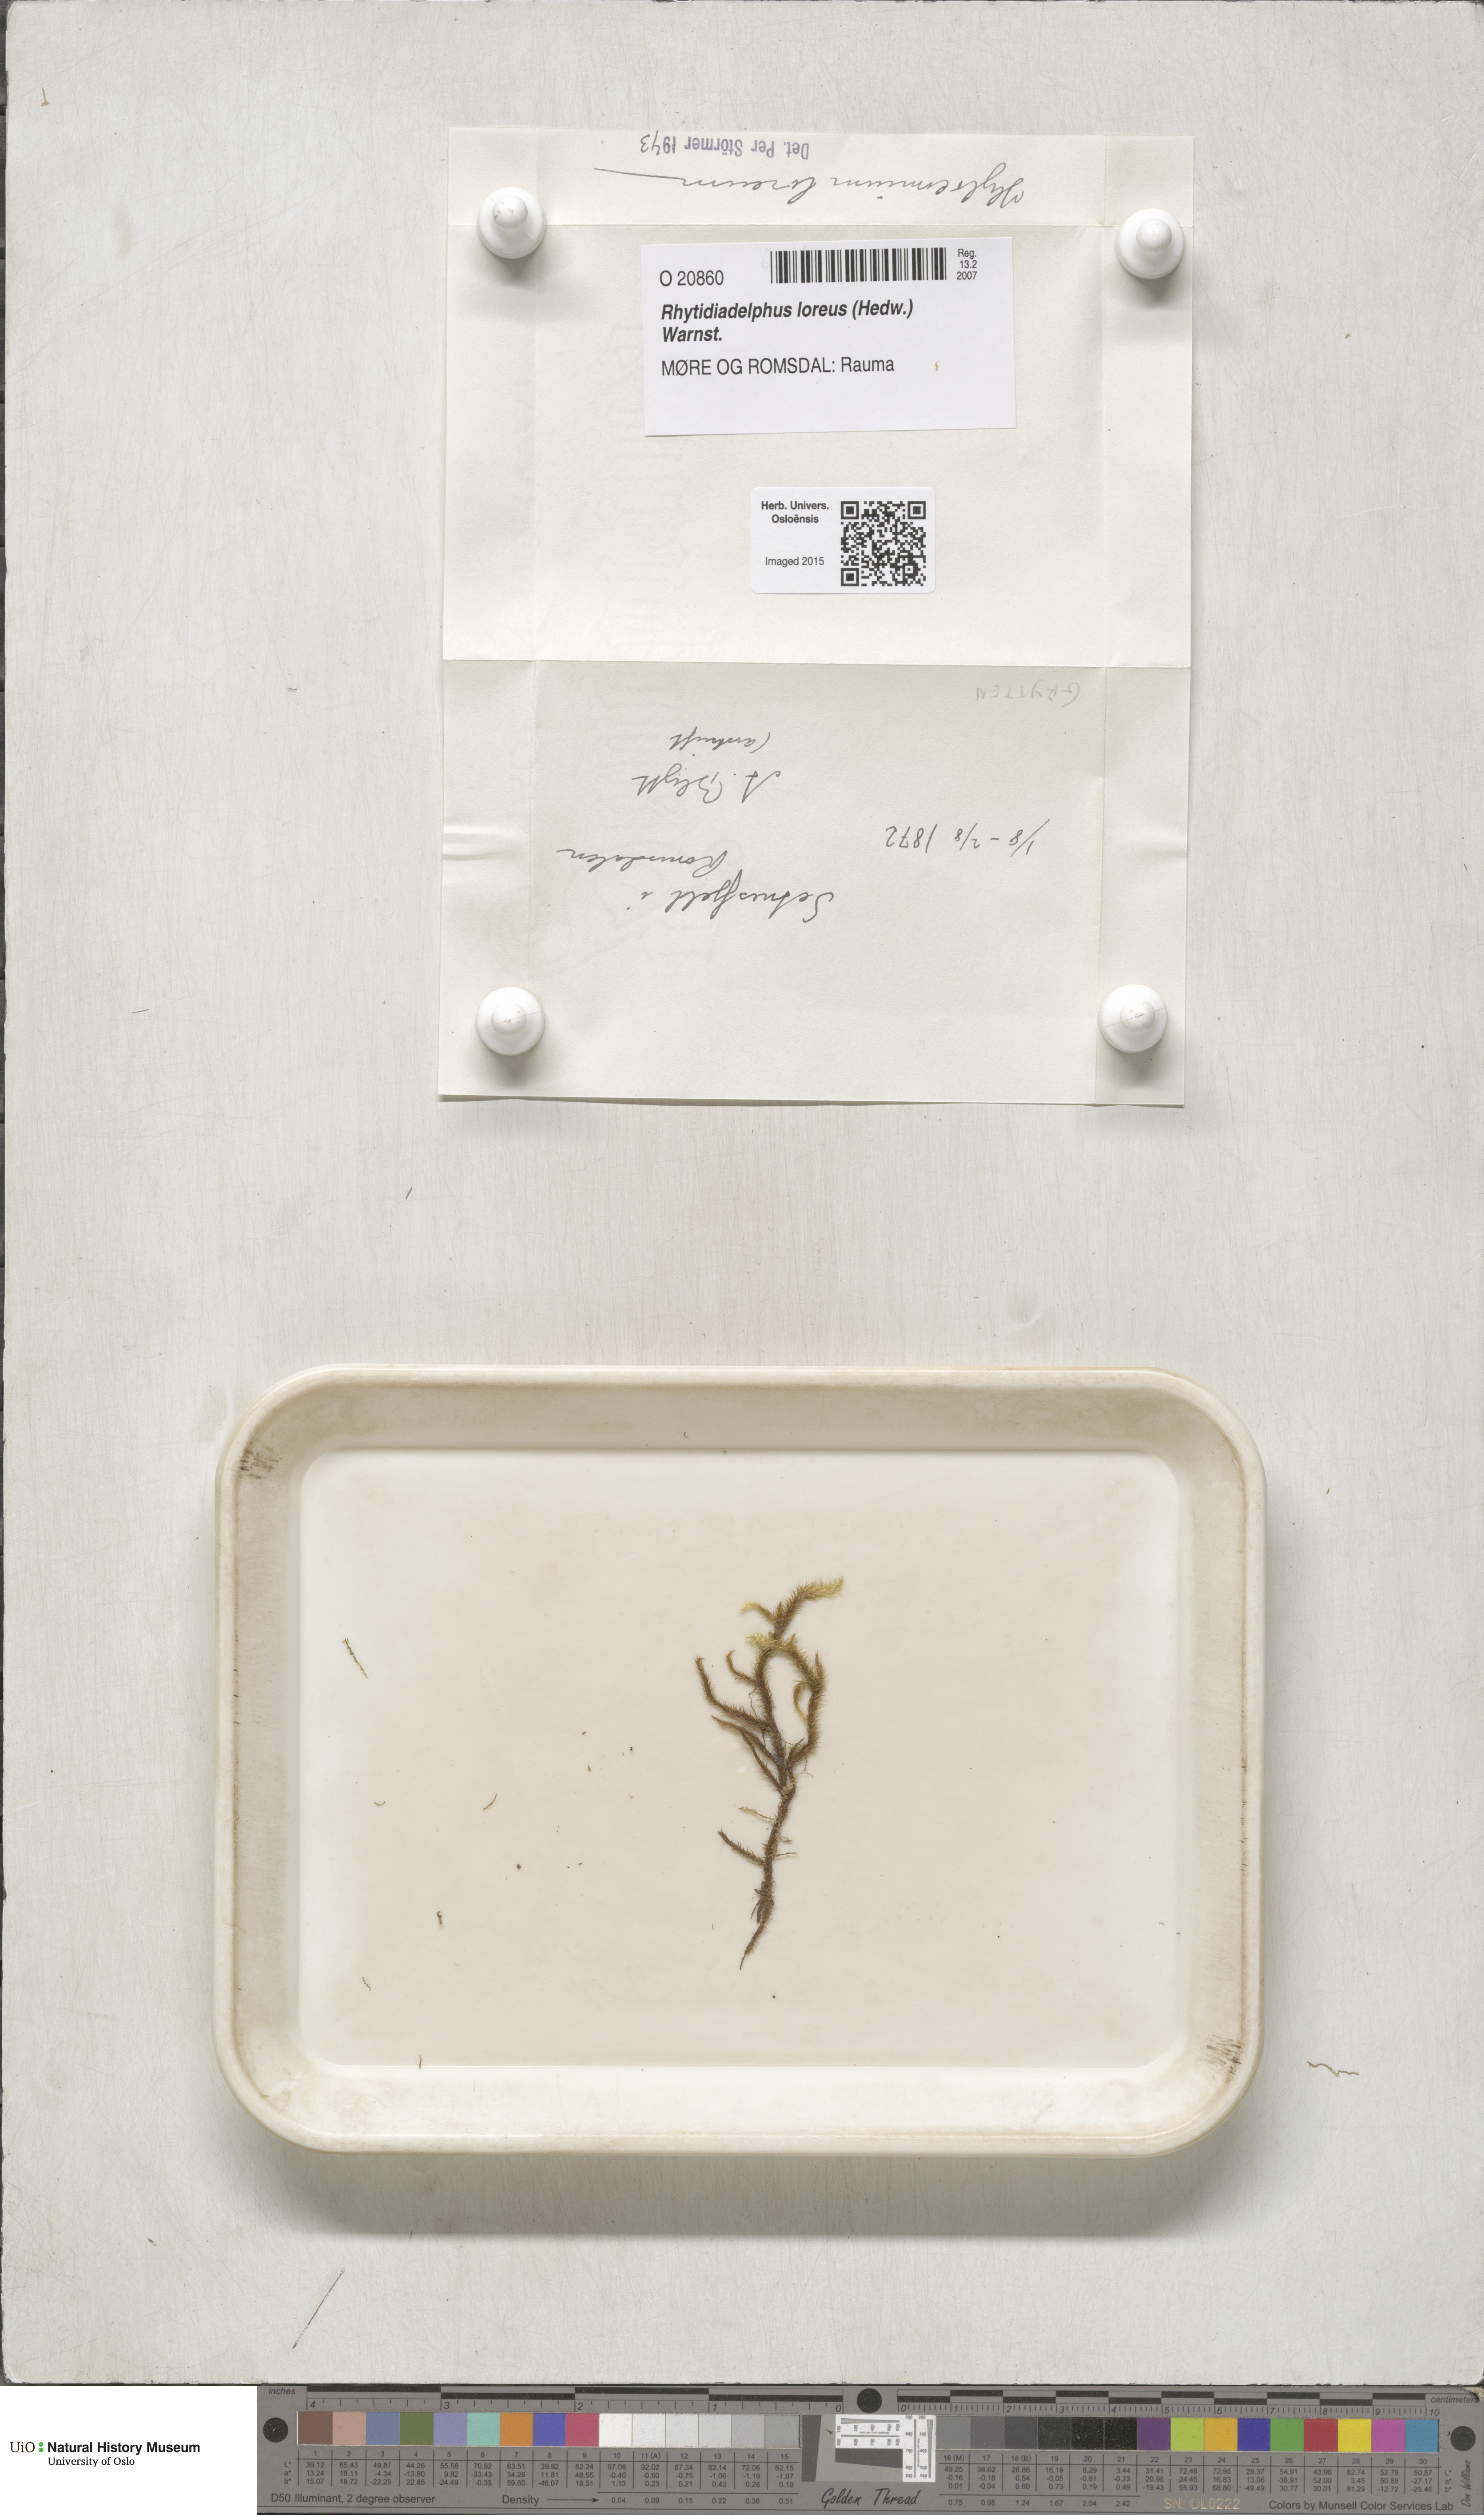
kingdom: Plantae
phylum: Bryophyta
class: Bryopsida
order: Hypnales
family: Hylocomiaceae
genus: Rhytidiadelphus
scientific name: Rhytidiadelphus loreus
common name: Lanky moss
